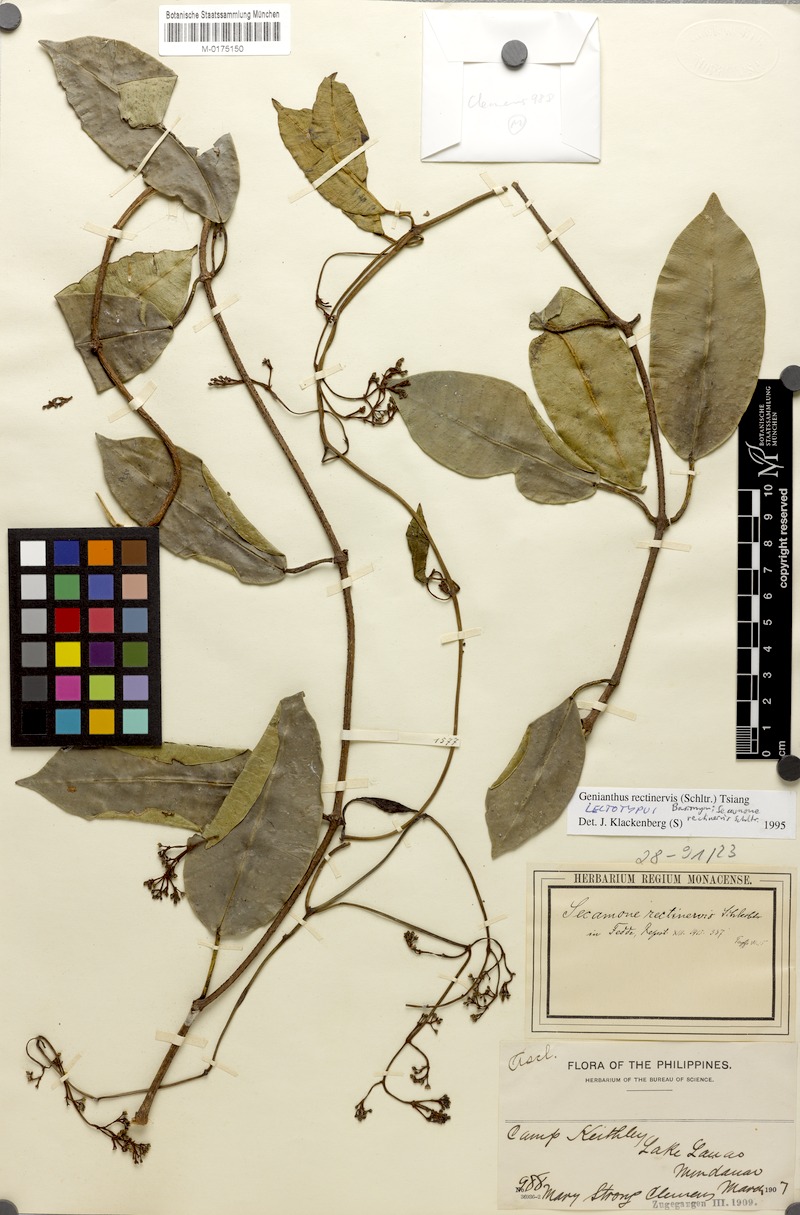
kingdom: Plantae
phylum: Tracheophyta
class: Magnoliopsida
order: Gentianales
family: Apocynaceae
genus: Genianthus
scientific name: Genianthus rectinervis
